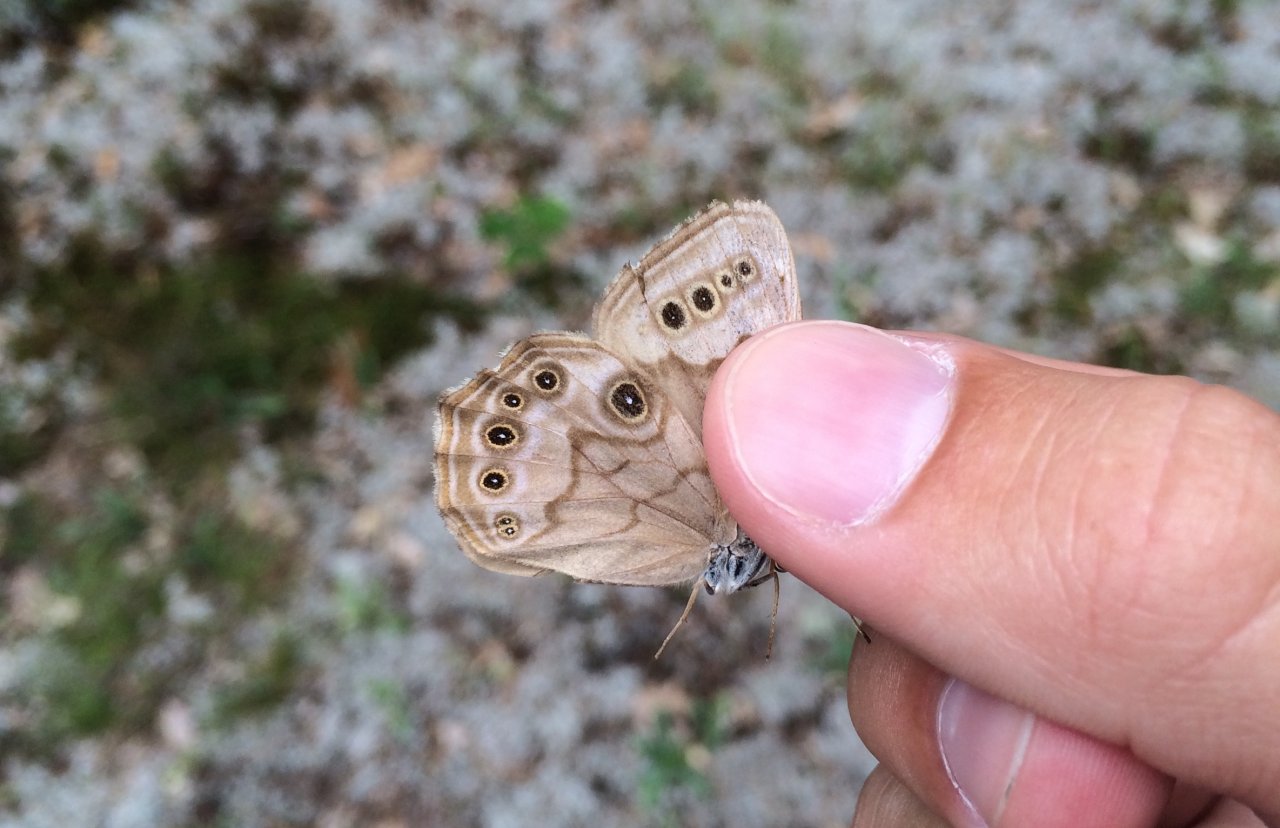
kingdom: Animalia
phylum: Arthropoda
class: Insecta
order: Lepidoptera
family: Nymphalidae
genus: Lethe
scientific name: Lethe anthedon
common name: Northern Pearly-Eye
